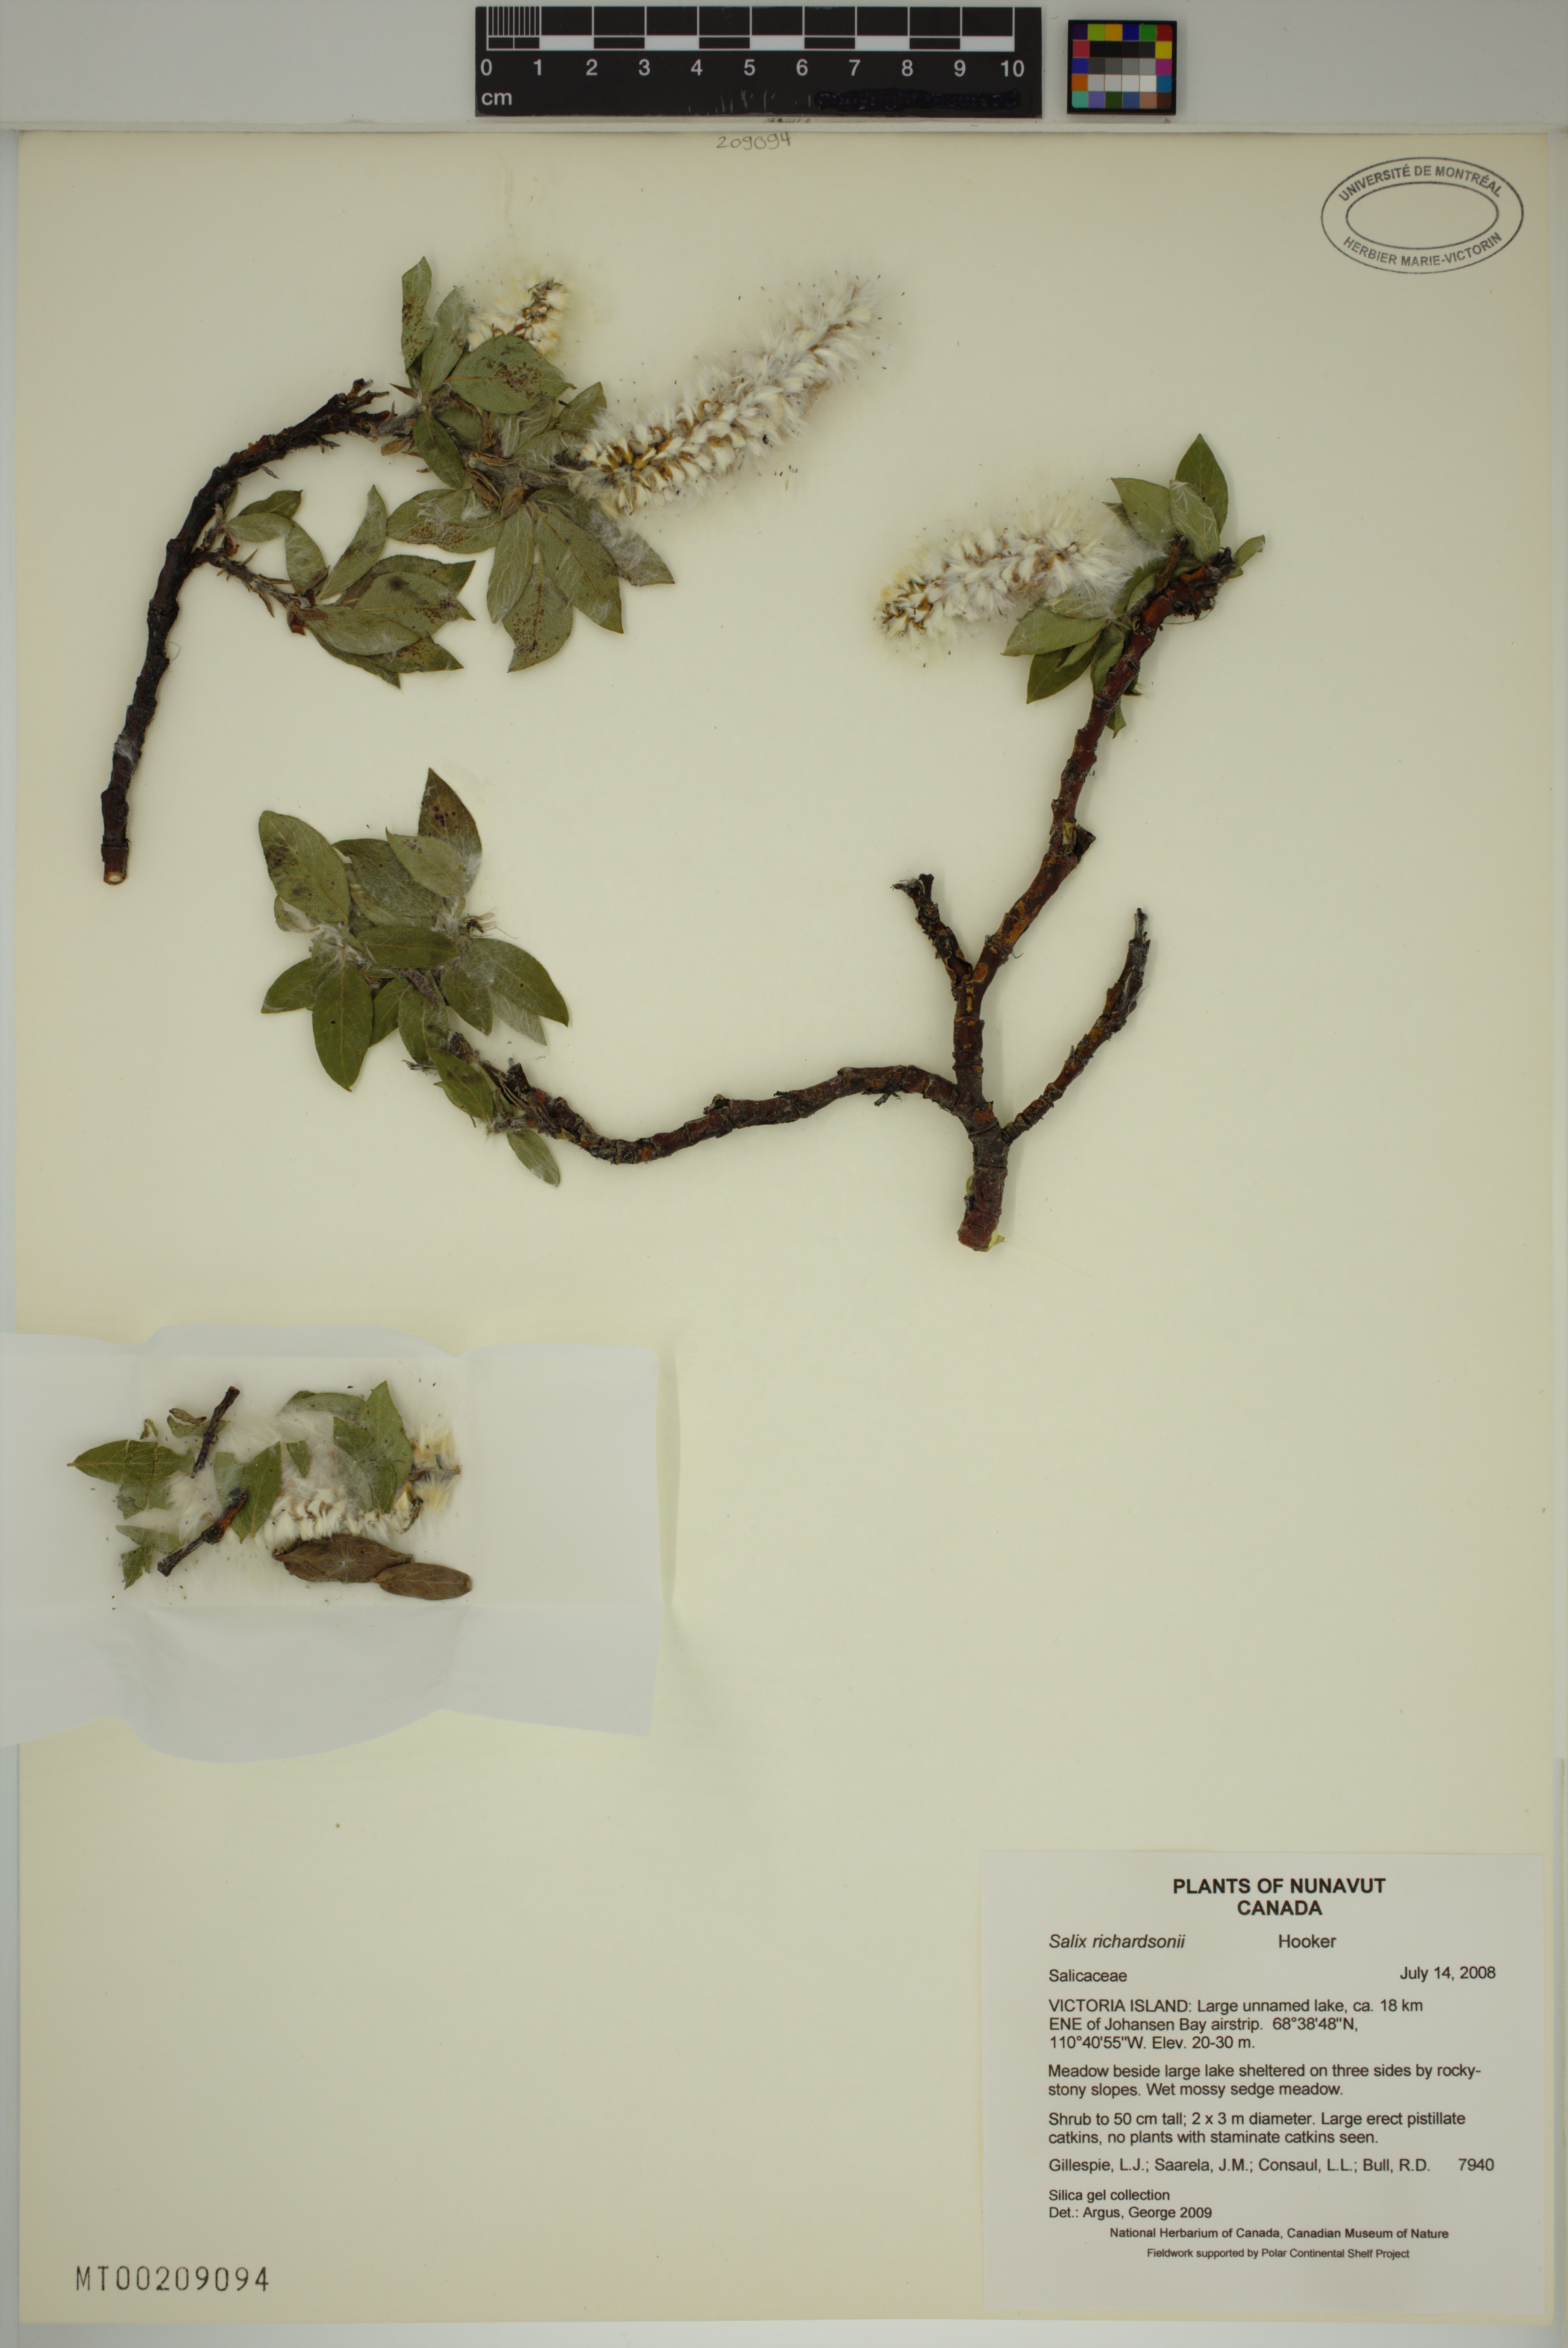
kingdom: Plantae
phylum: Tracheophyta
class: Magnoliopsida
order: Malpighiales
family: Salicaceae
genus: Salix
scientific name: Salix richardsonii
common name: Richardson’s willow
